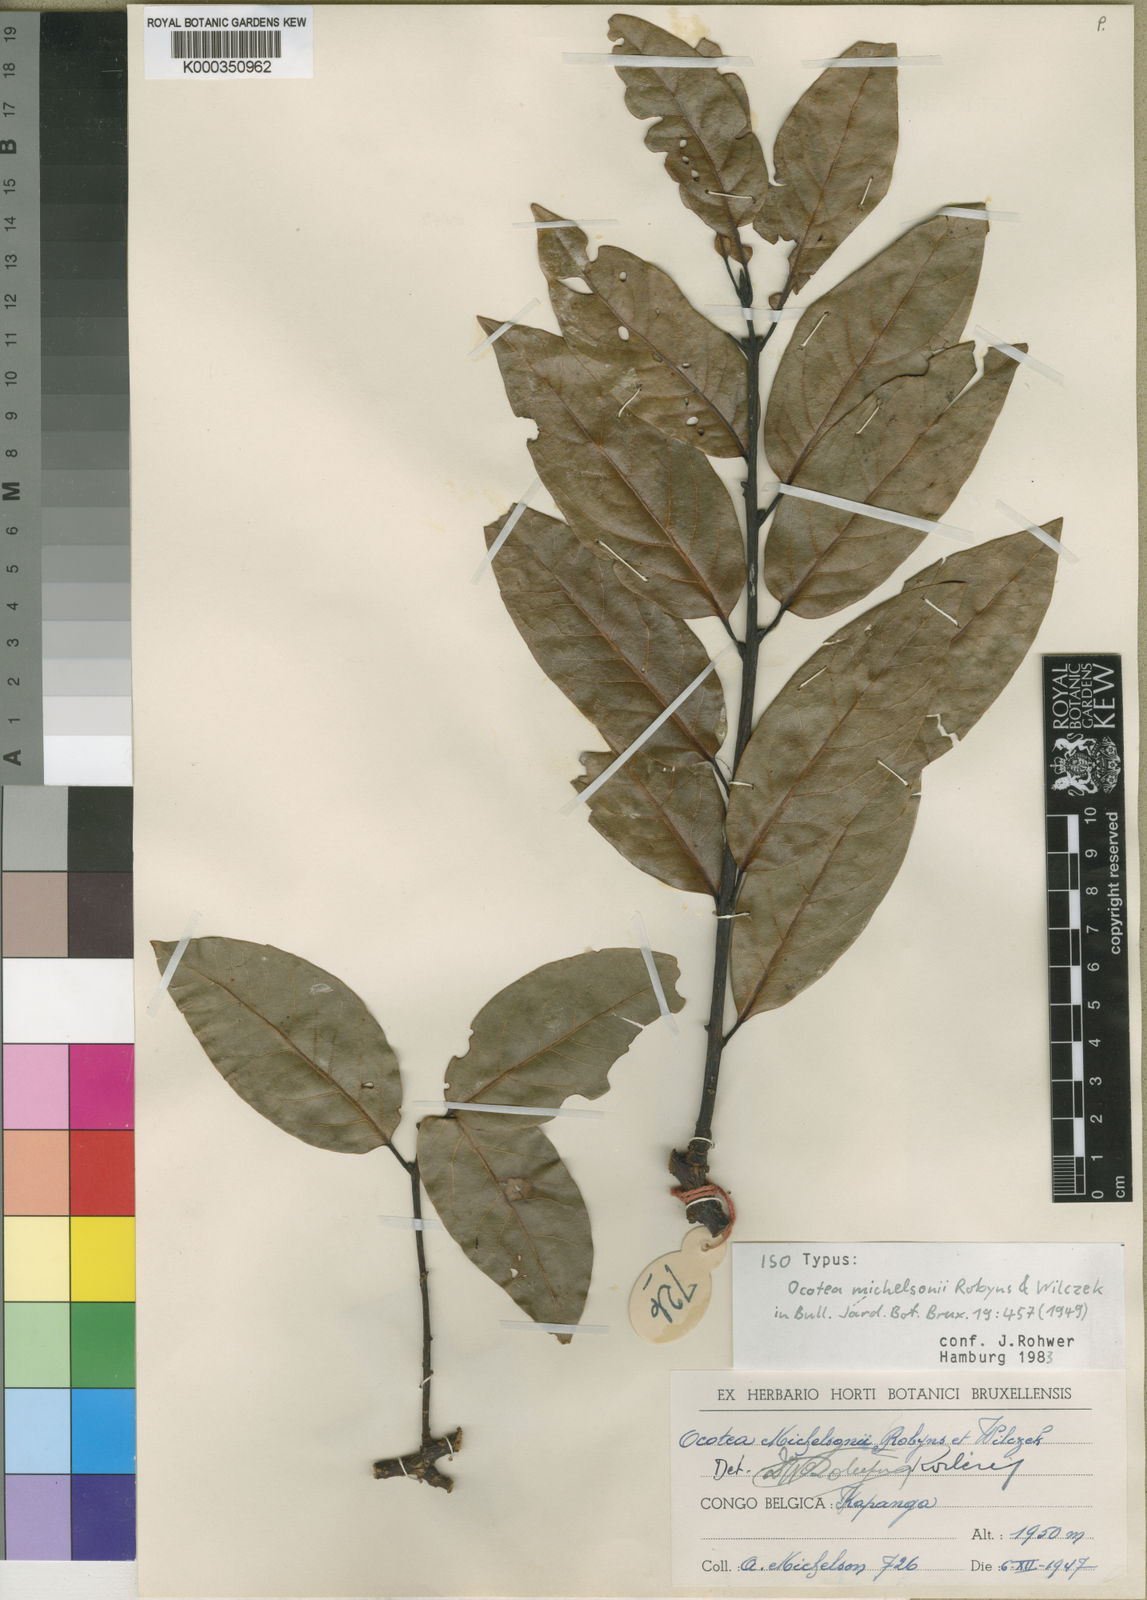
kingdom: Plantae
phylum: Tracheophyta
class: Magnoliopsida
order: Laurales
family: Lauraceae
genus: Kuloa
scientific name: Kuloa michelsonii
